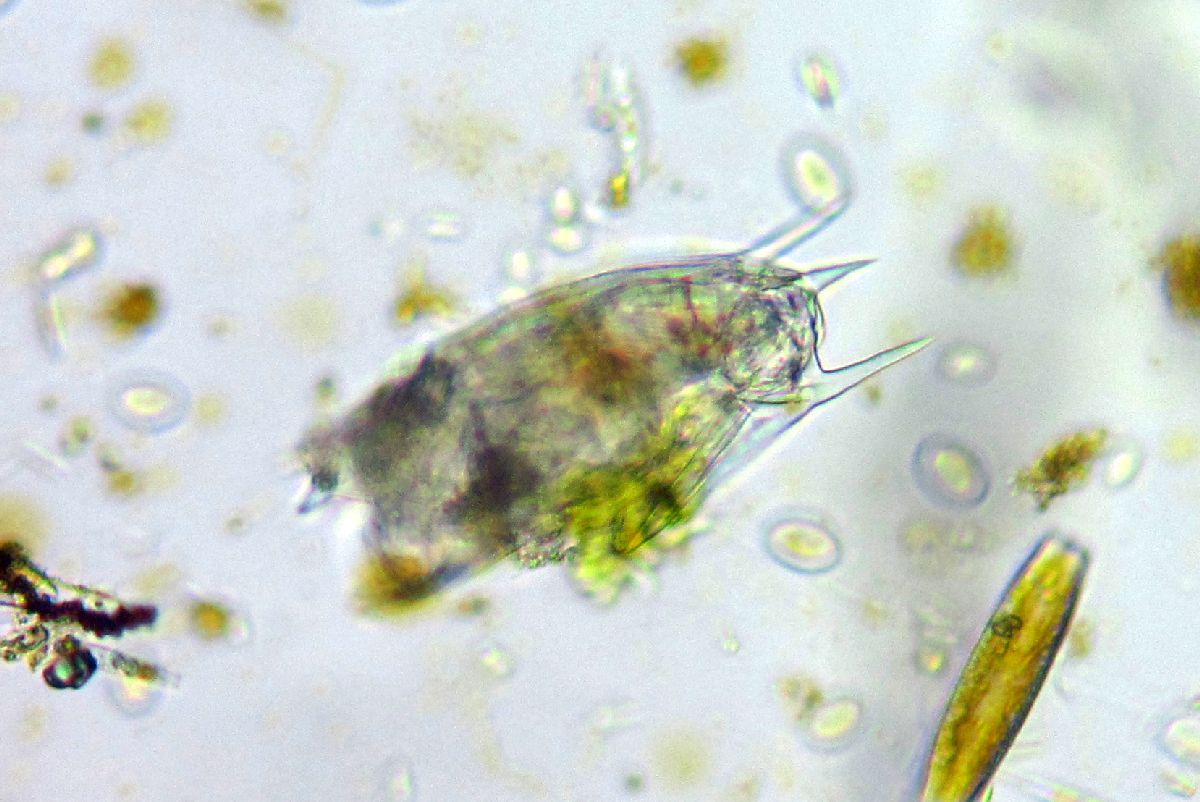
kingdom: Animalia
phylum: Rotifera
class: Eurotatoria
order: Ploima
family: Mytilinidae
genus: Mytilina
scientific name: Mytilina ventralis
